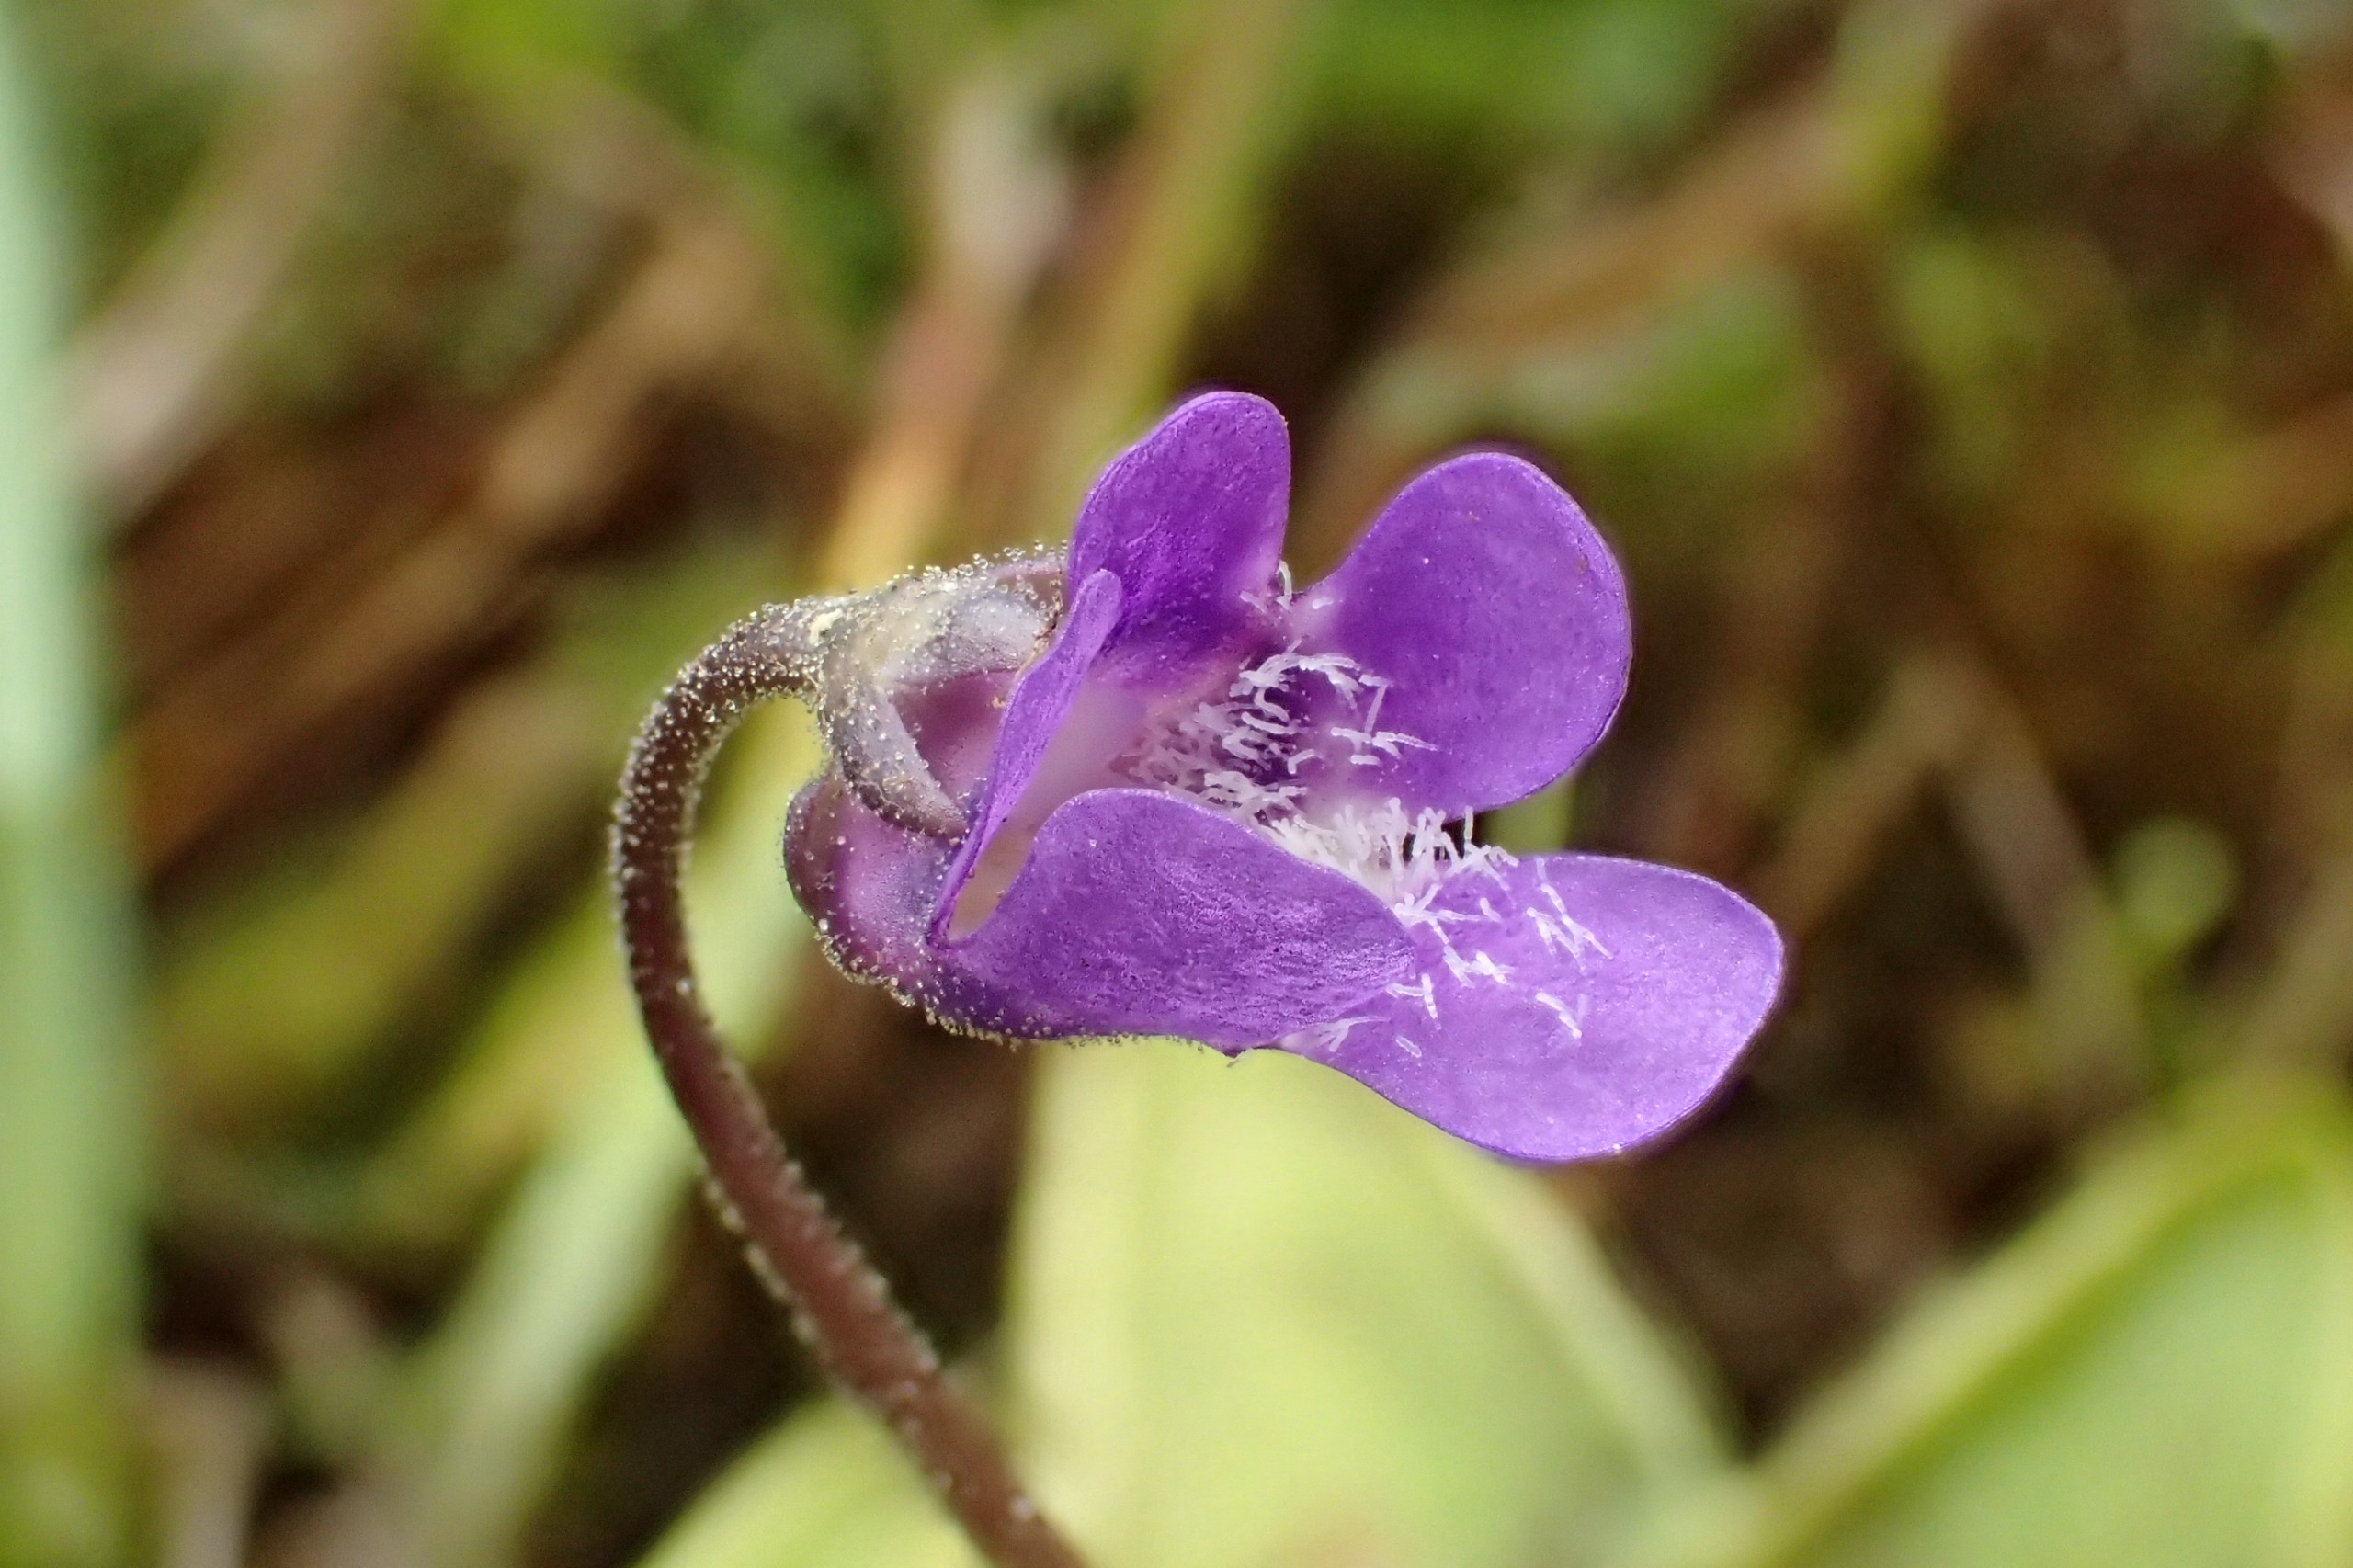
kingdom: Plantae
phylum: Tracheophyta
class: Magnoliopsida
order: Lamiales
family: Lentibulariaceae
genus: Pinguicula
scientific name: Pinguicula vulgaris
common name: Vibefedt
